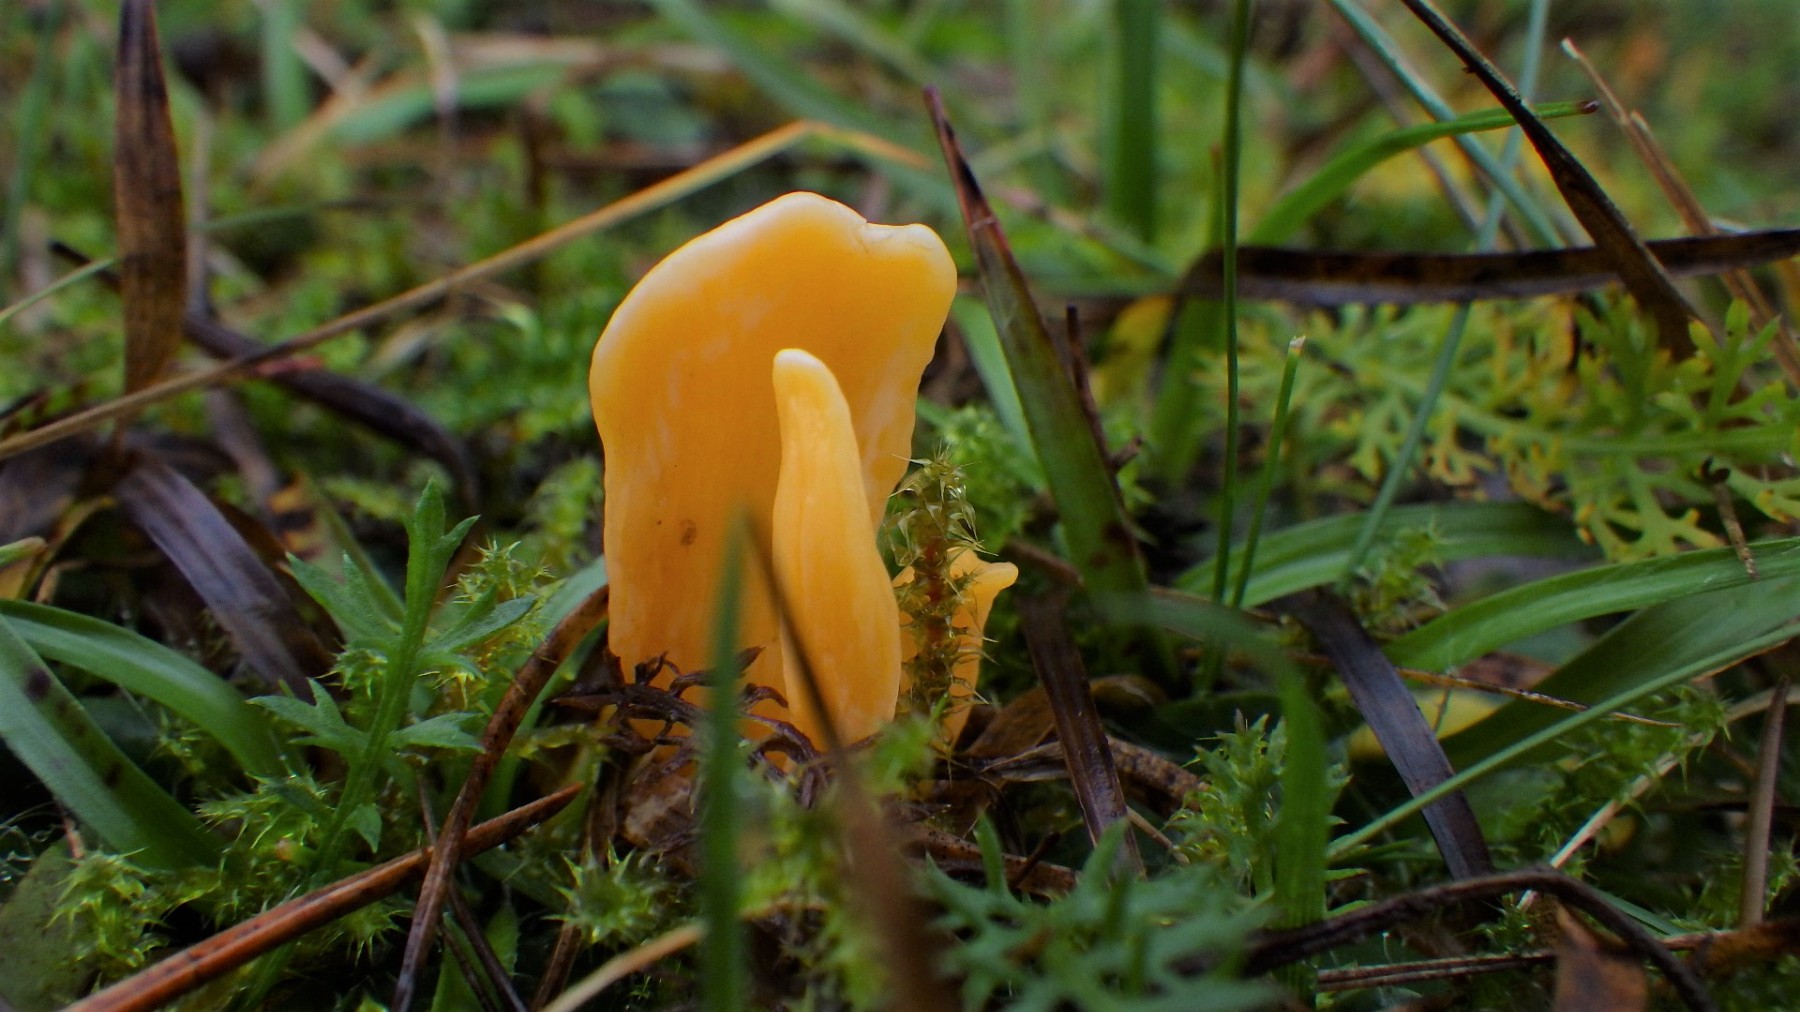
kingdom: Fungi
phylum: Basidiomycota
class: Agaricomycetes
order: Agaricales
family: Clavariaceae
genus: Clavulinopsis
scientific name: Clavulinopsis luteoalba
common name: abrikos-køllesvamp
